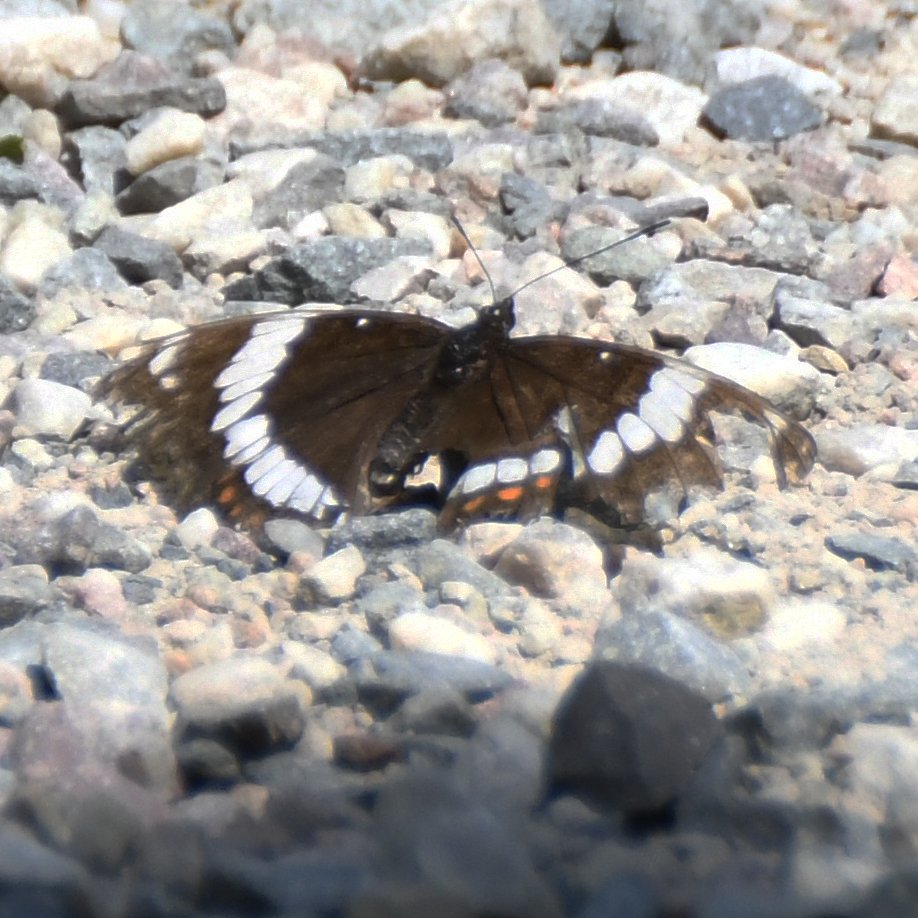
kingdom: Animalia
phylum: Arthropoda
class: Insecta
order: Lepidoptera
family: Nymphalidae
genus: Limenitis
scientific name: Limenitis arthemis
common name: Red-spotted Admiral
